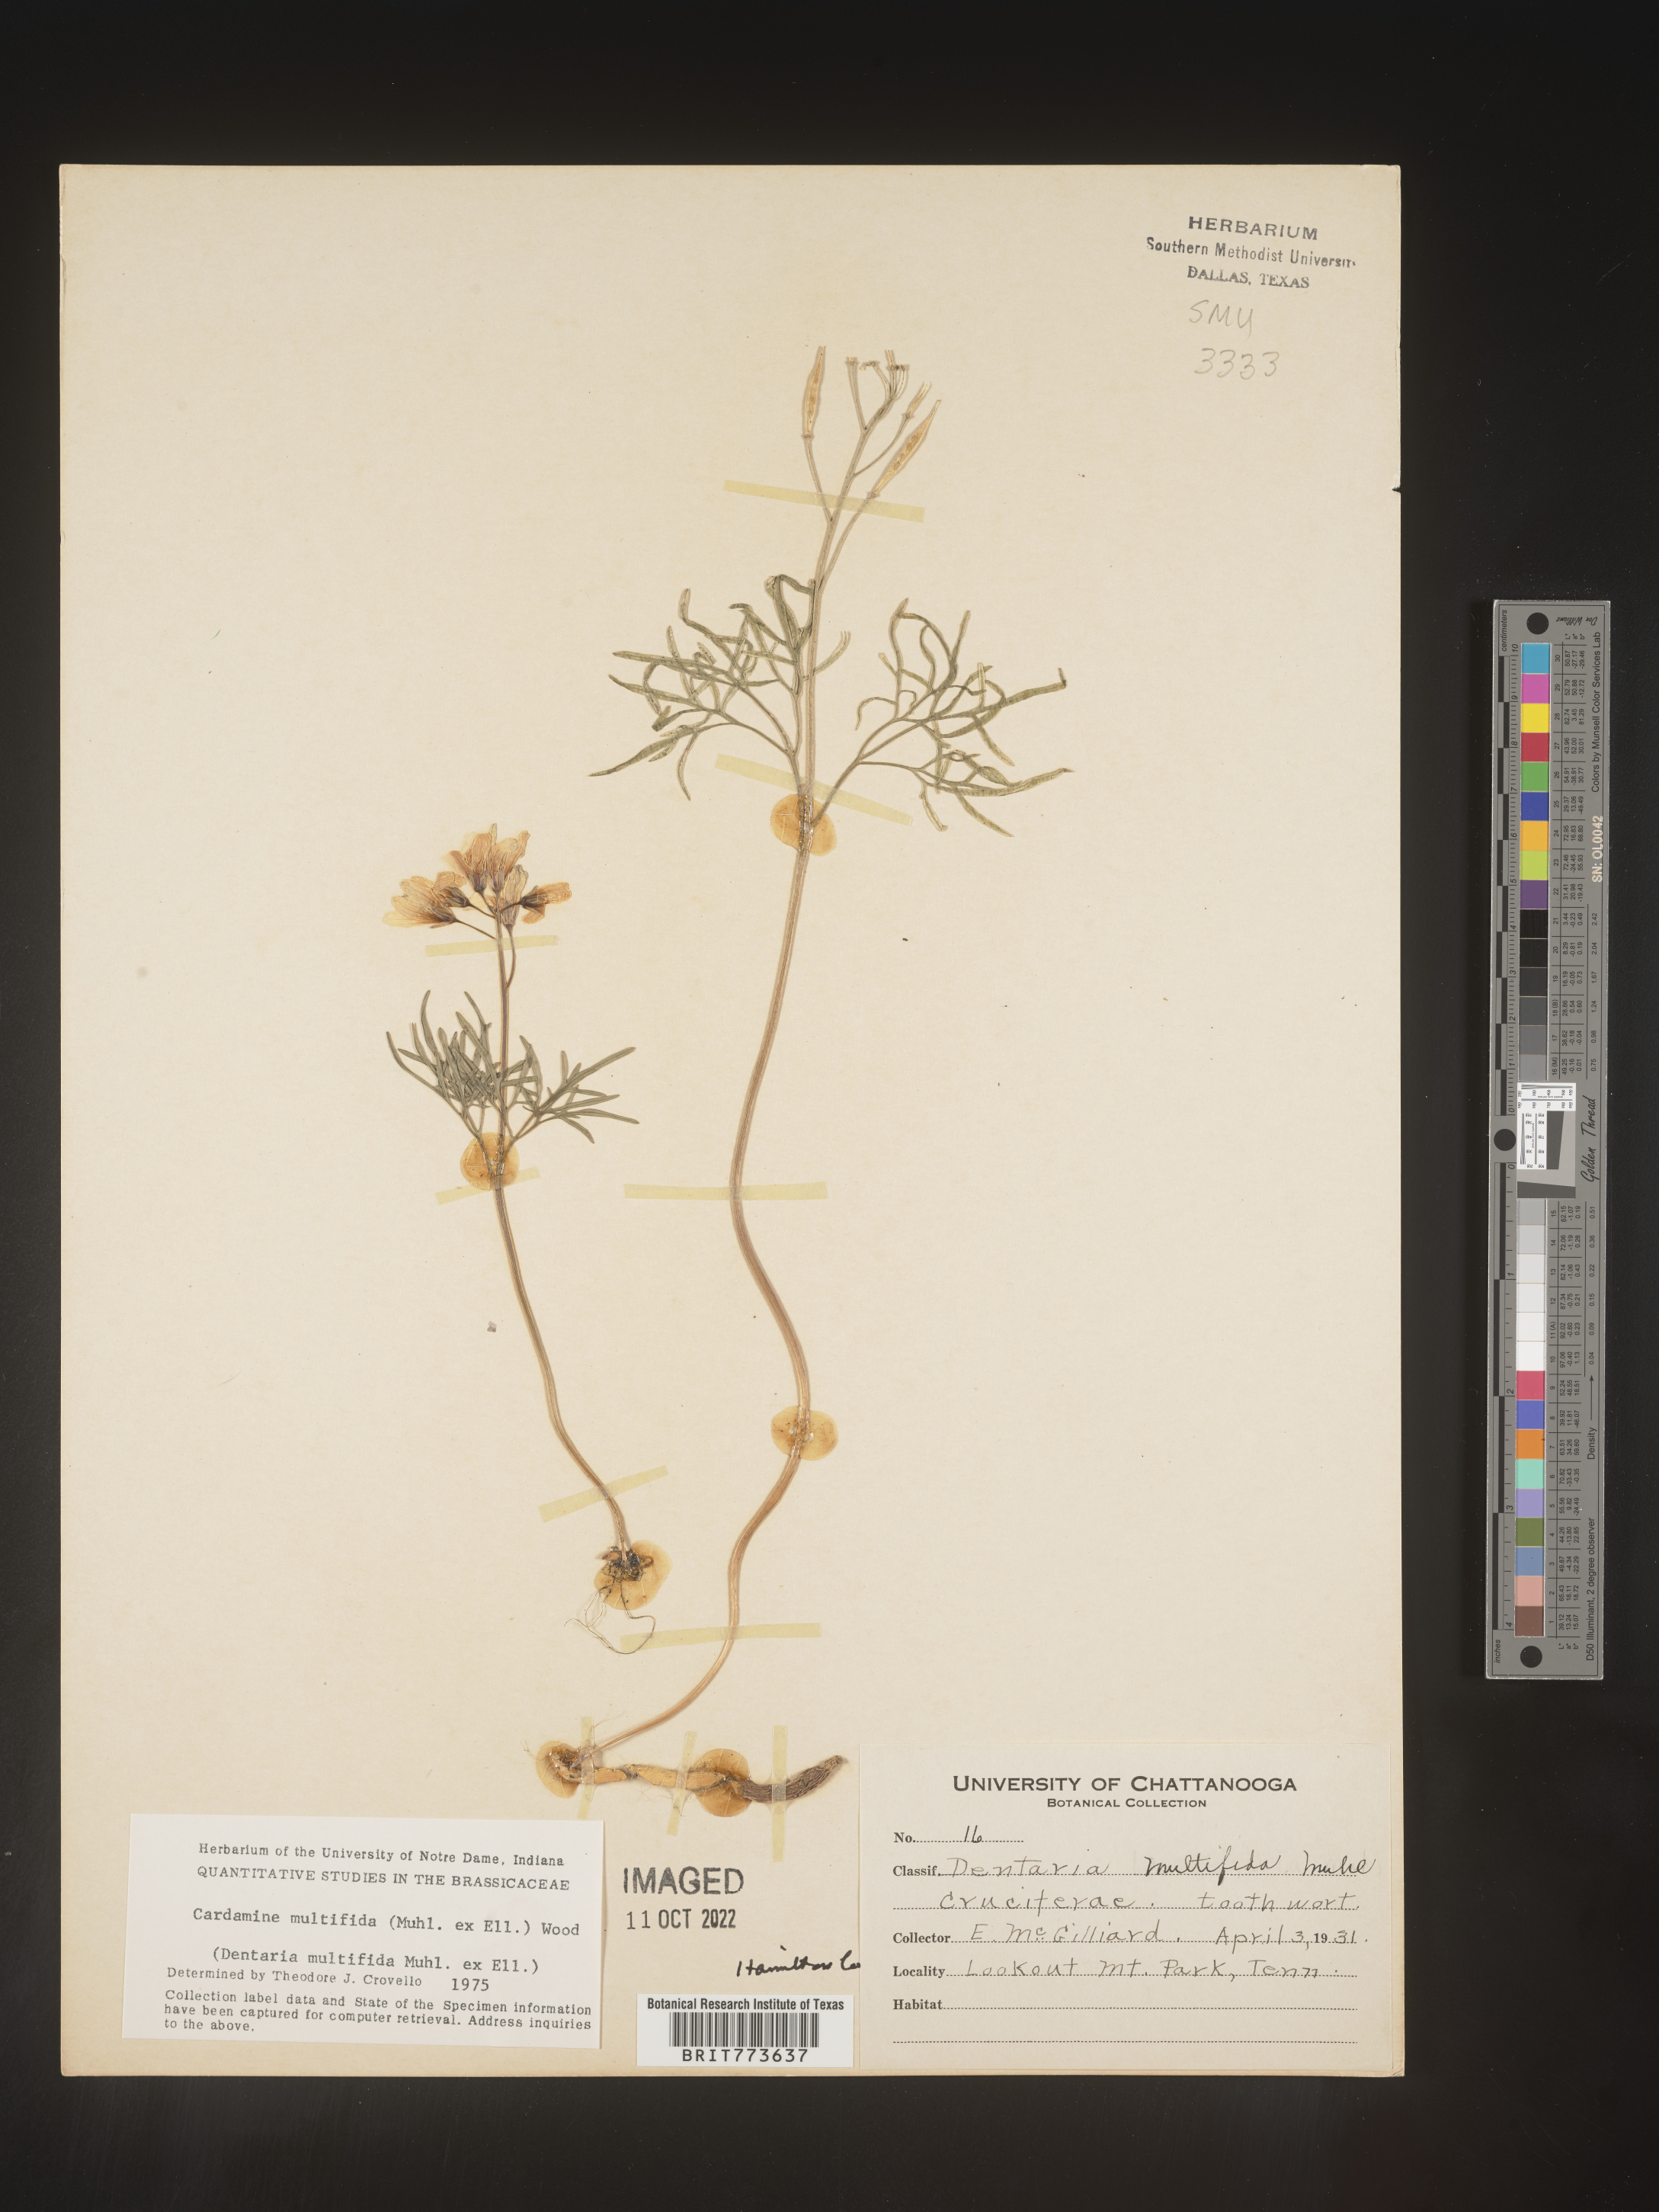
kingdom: Plantae
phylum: Tracheophyta
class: Magnoliopsida
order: Brassicales
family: Brassicaceae
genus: Cardamine
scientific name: Cardamine
